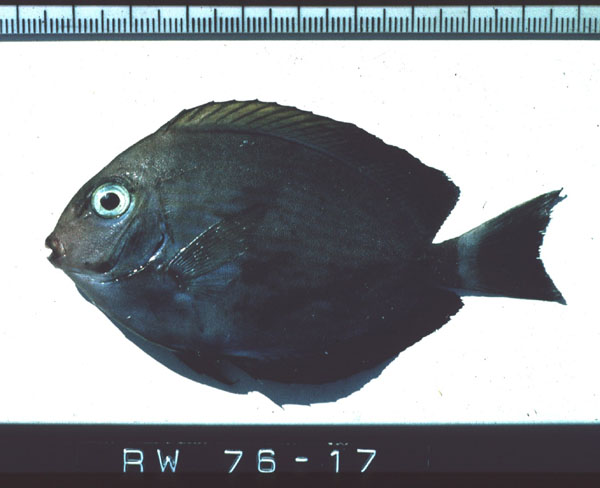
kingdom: Animalia
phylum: Chordata
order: Perciformes
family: Acanthuridae
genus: Acanthurus
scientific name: Acanthurus lineatus
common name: Striped surgeonfish
